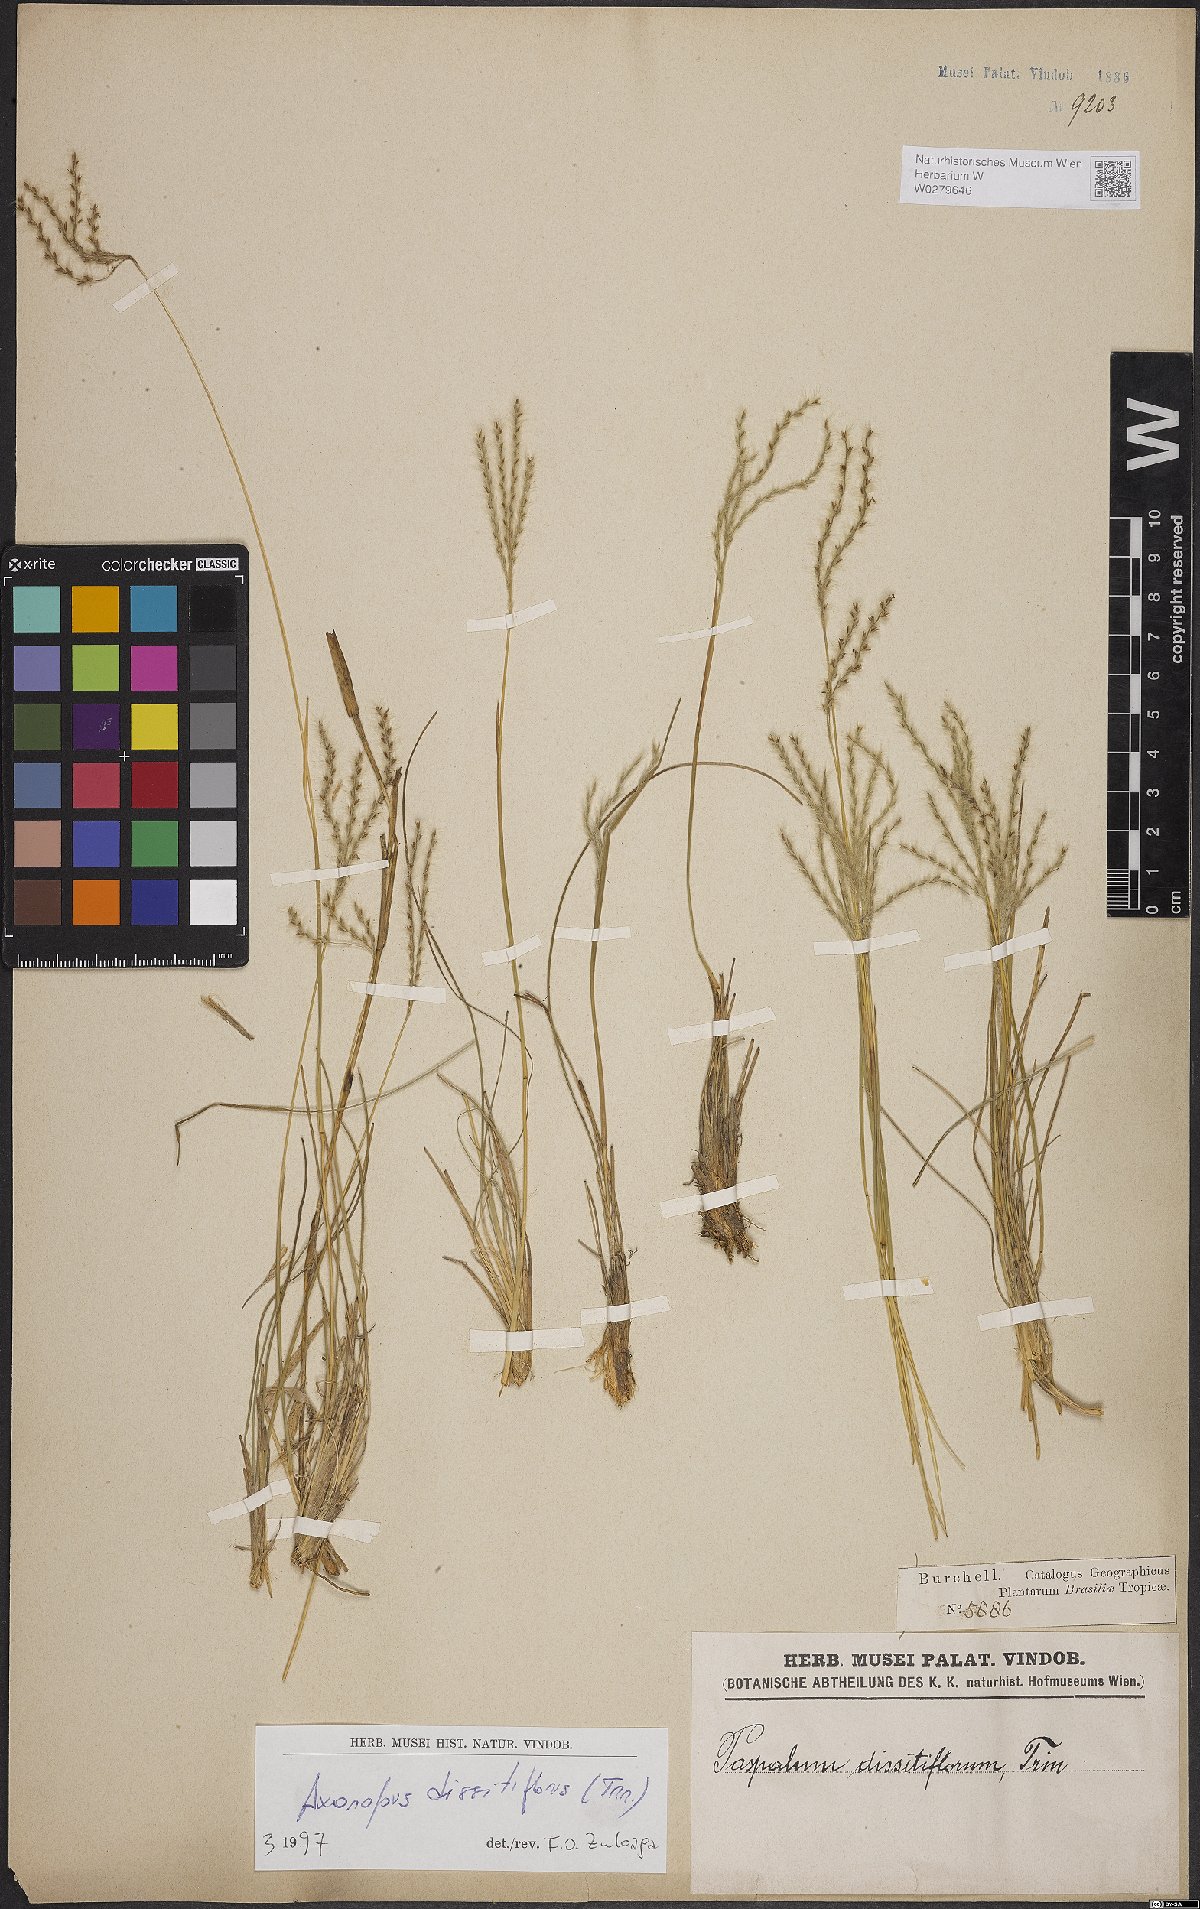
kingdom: Plantae
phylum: Tracheophyta
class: Liliopsida
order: Poales
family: Poaceae
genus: Axonopus
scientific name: Axonopus brasiliensis
